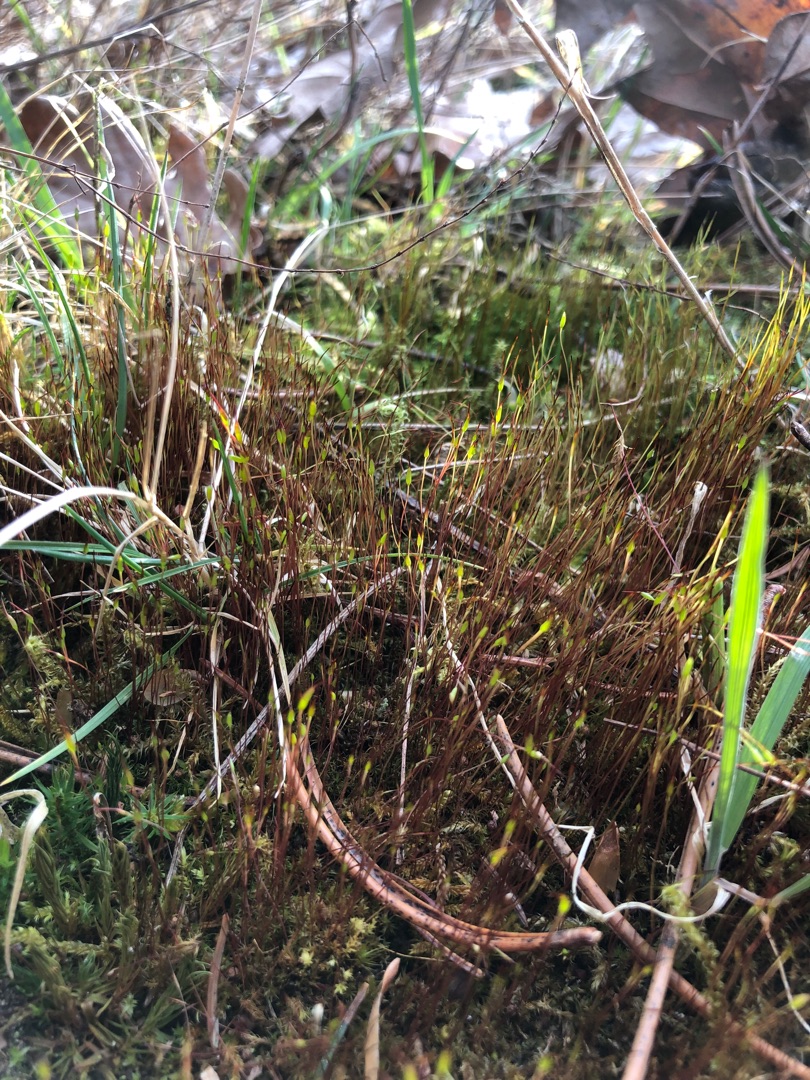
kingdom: Plantae
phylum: Bryophyta
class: Bryopsida
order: Dicranales
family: Ditrichaceae
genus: Ceratodon
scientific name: Ceratodon purpureus
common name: Rød horntand
